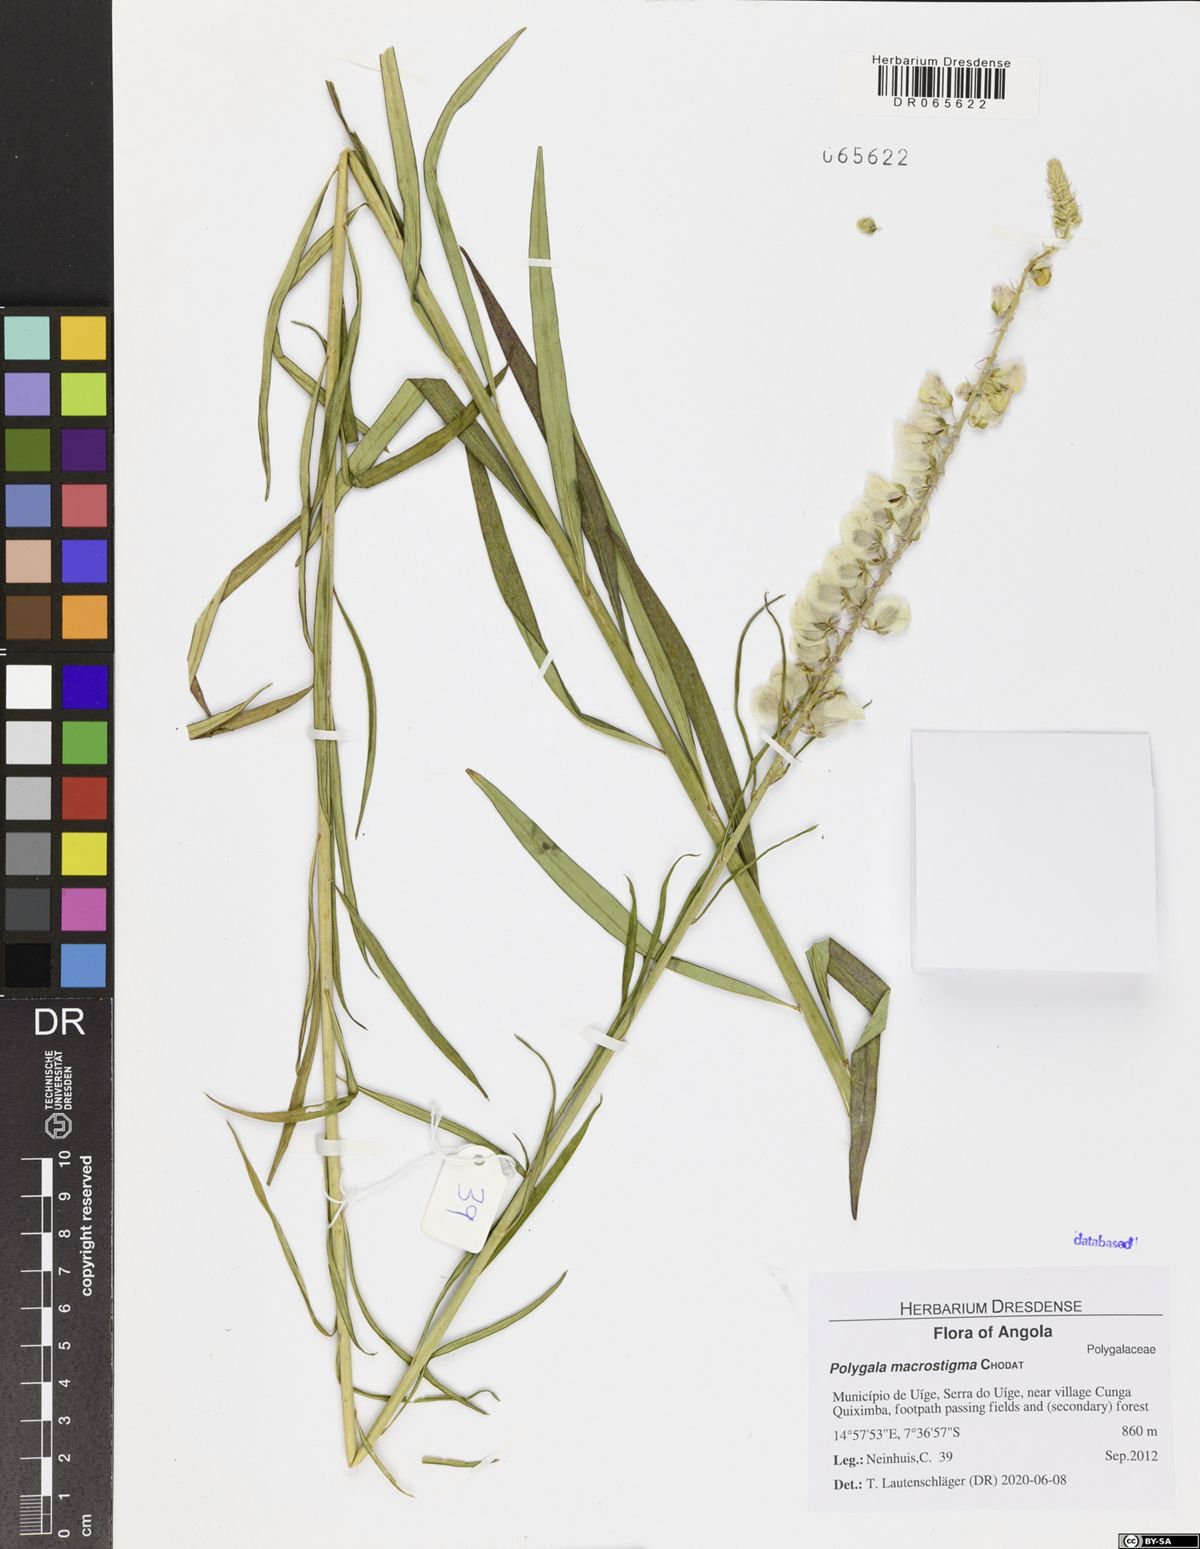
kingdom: Plantae
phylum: Tracheophyta
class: Magnoliopsida
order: Fabales
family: Polygalaceae
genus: Polygala
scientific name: Polygala macrostigma
